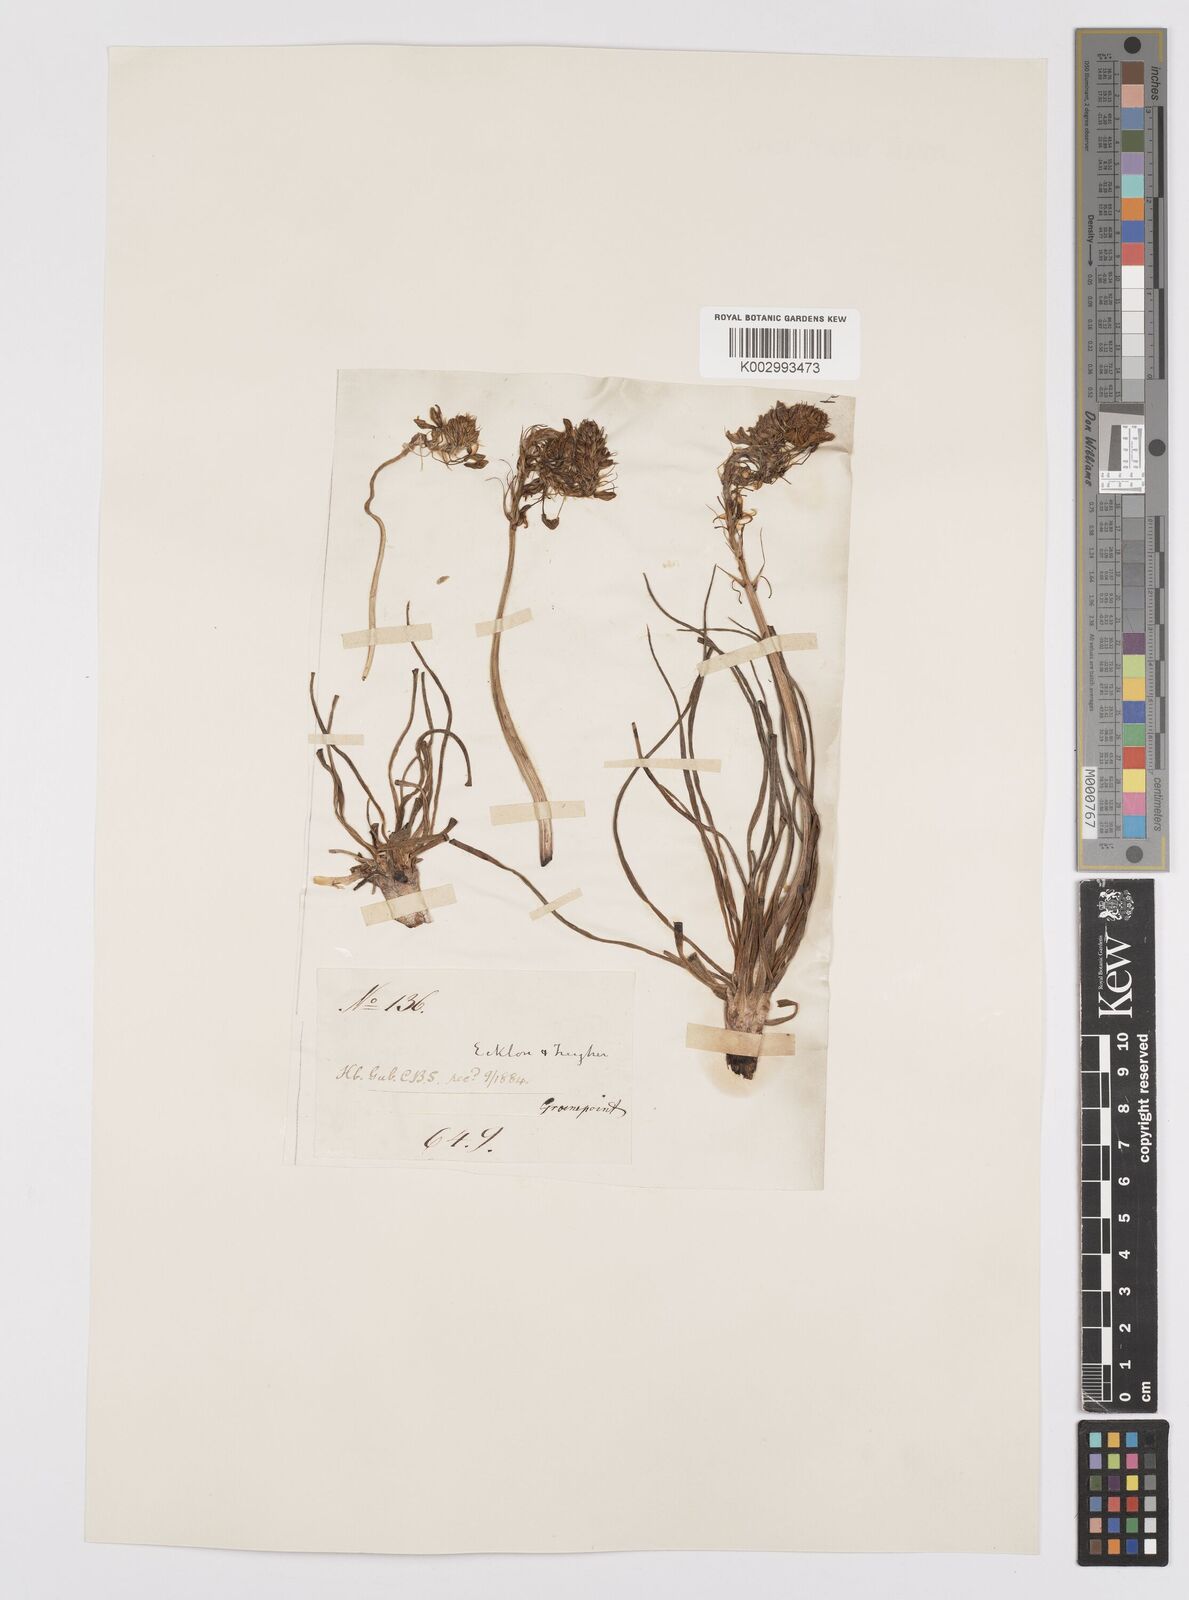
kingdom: Plantae
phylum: Tracheophyta
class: Liliopsida
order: Asparagales
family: Asphodelaceae
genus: Bulbine
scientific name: Bulbine lagopus
